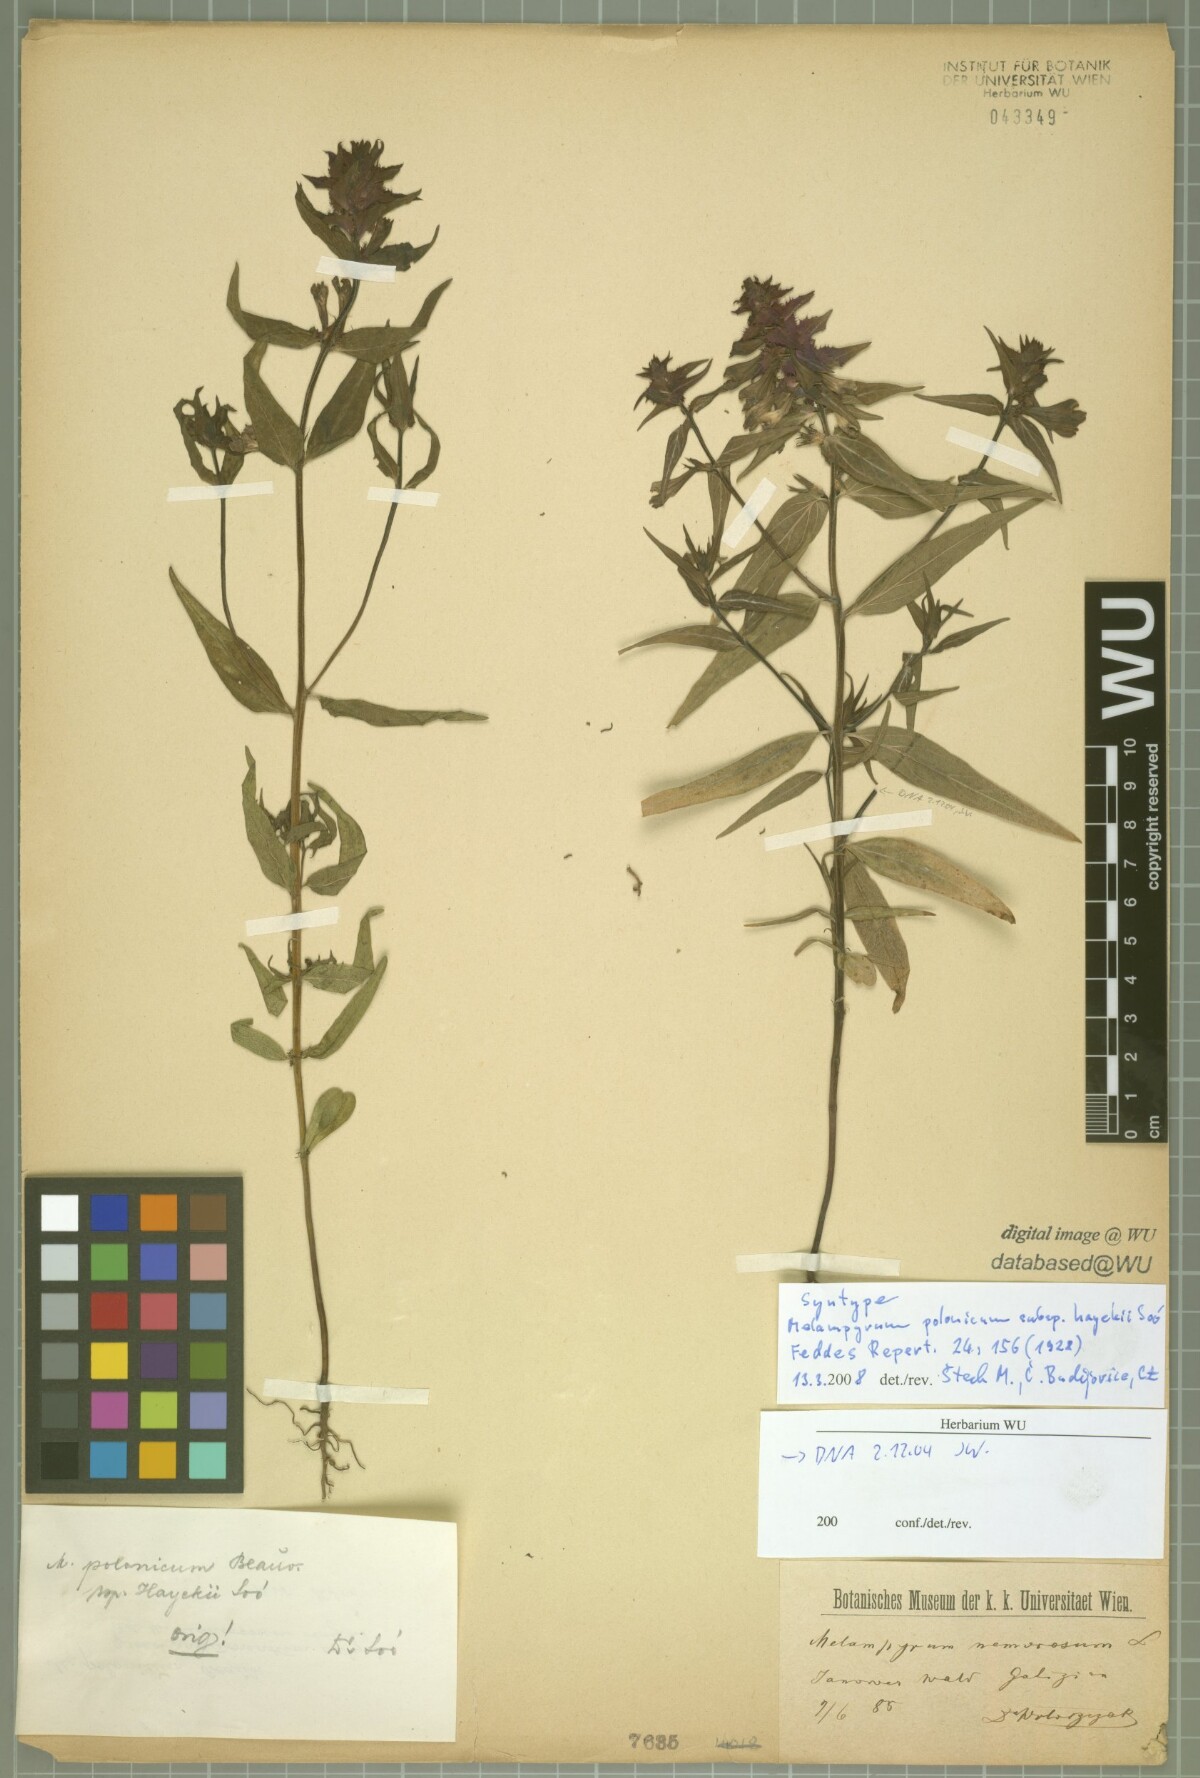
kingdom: Plantae
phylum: Tracheophyta
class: Magnoliopsida
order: Lamiales
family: Orobanchaceae
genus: Melampyrum
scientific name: Melampyrum polonicum
